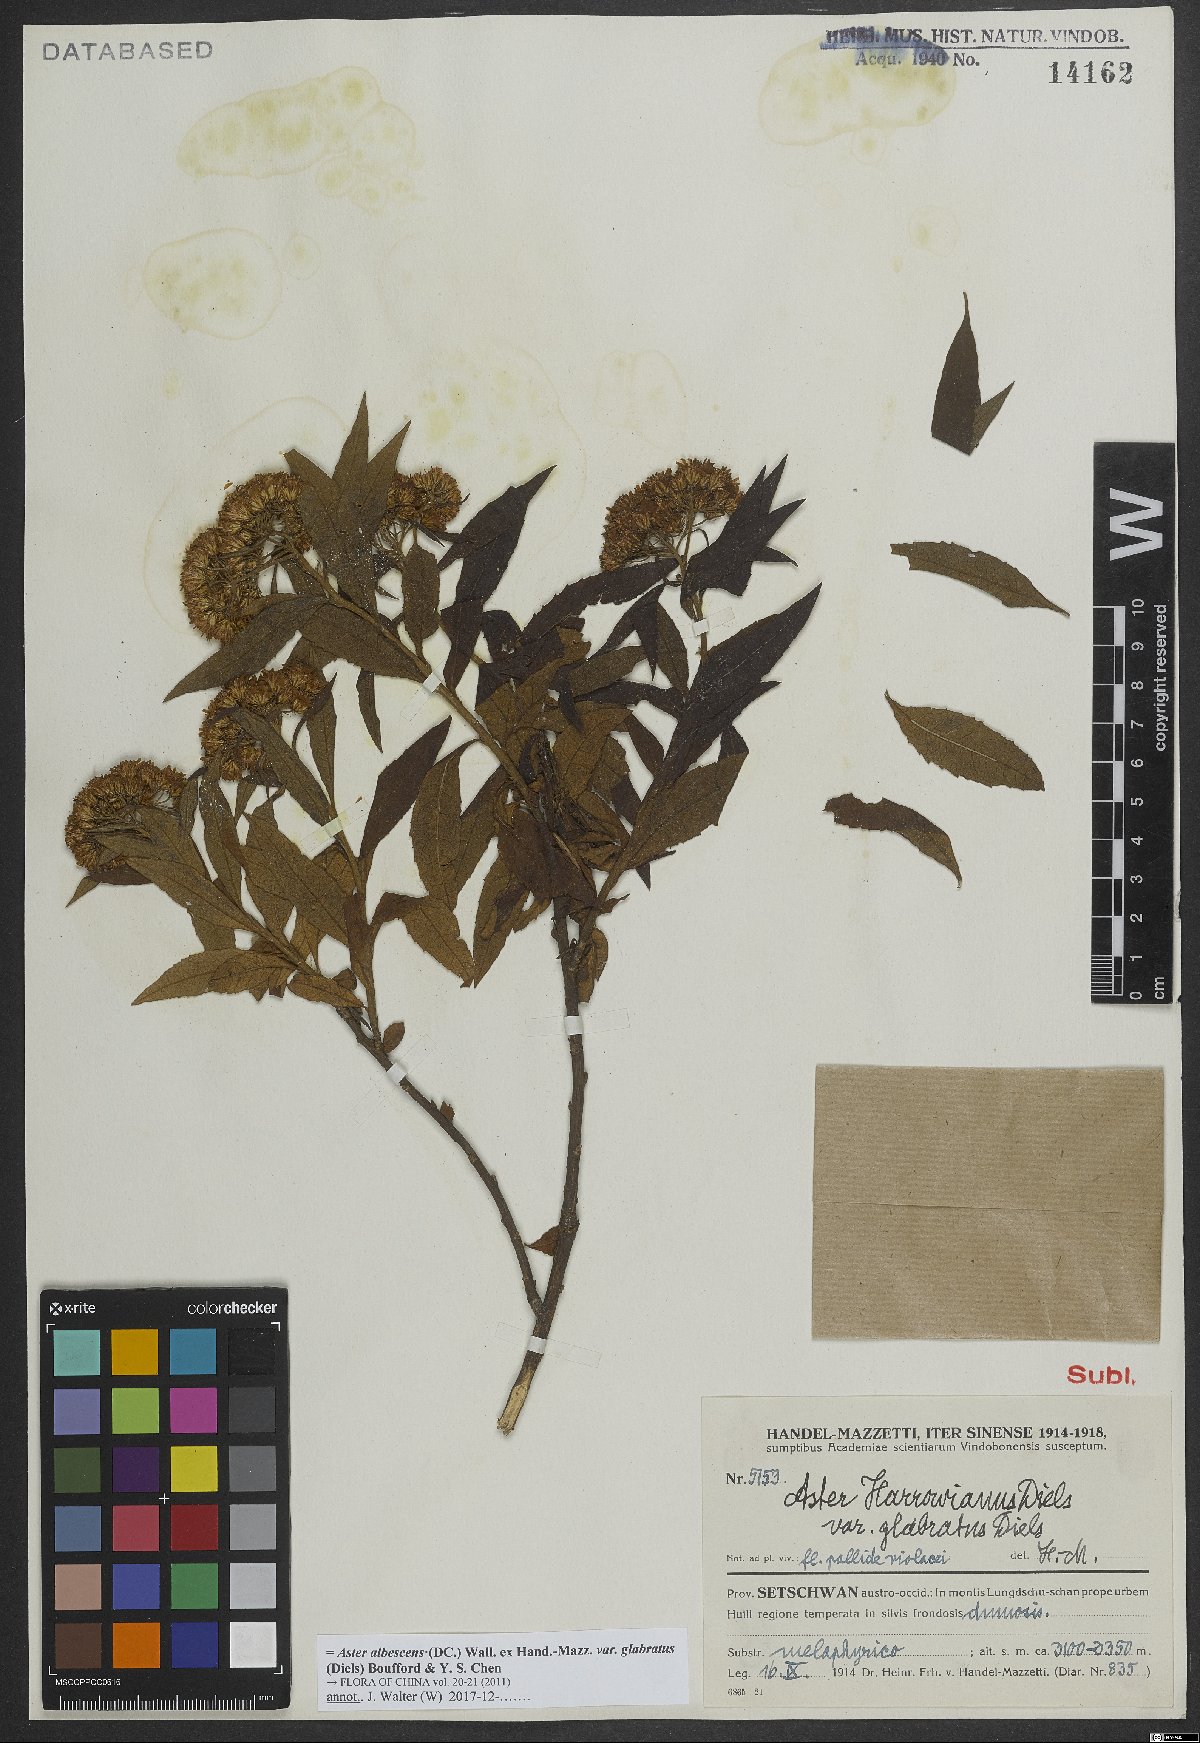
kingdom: Plantae
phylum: Tracheophyta
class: Magnoliopsida
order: Asterales
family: Asteraceae
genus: Sinosidus
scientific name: Sinosidus albescens
